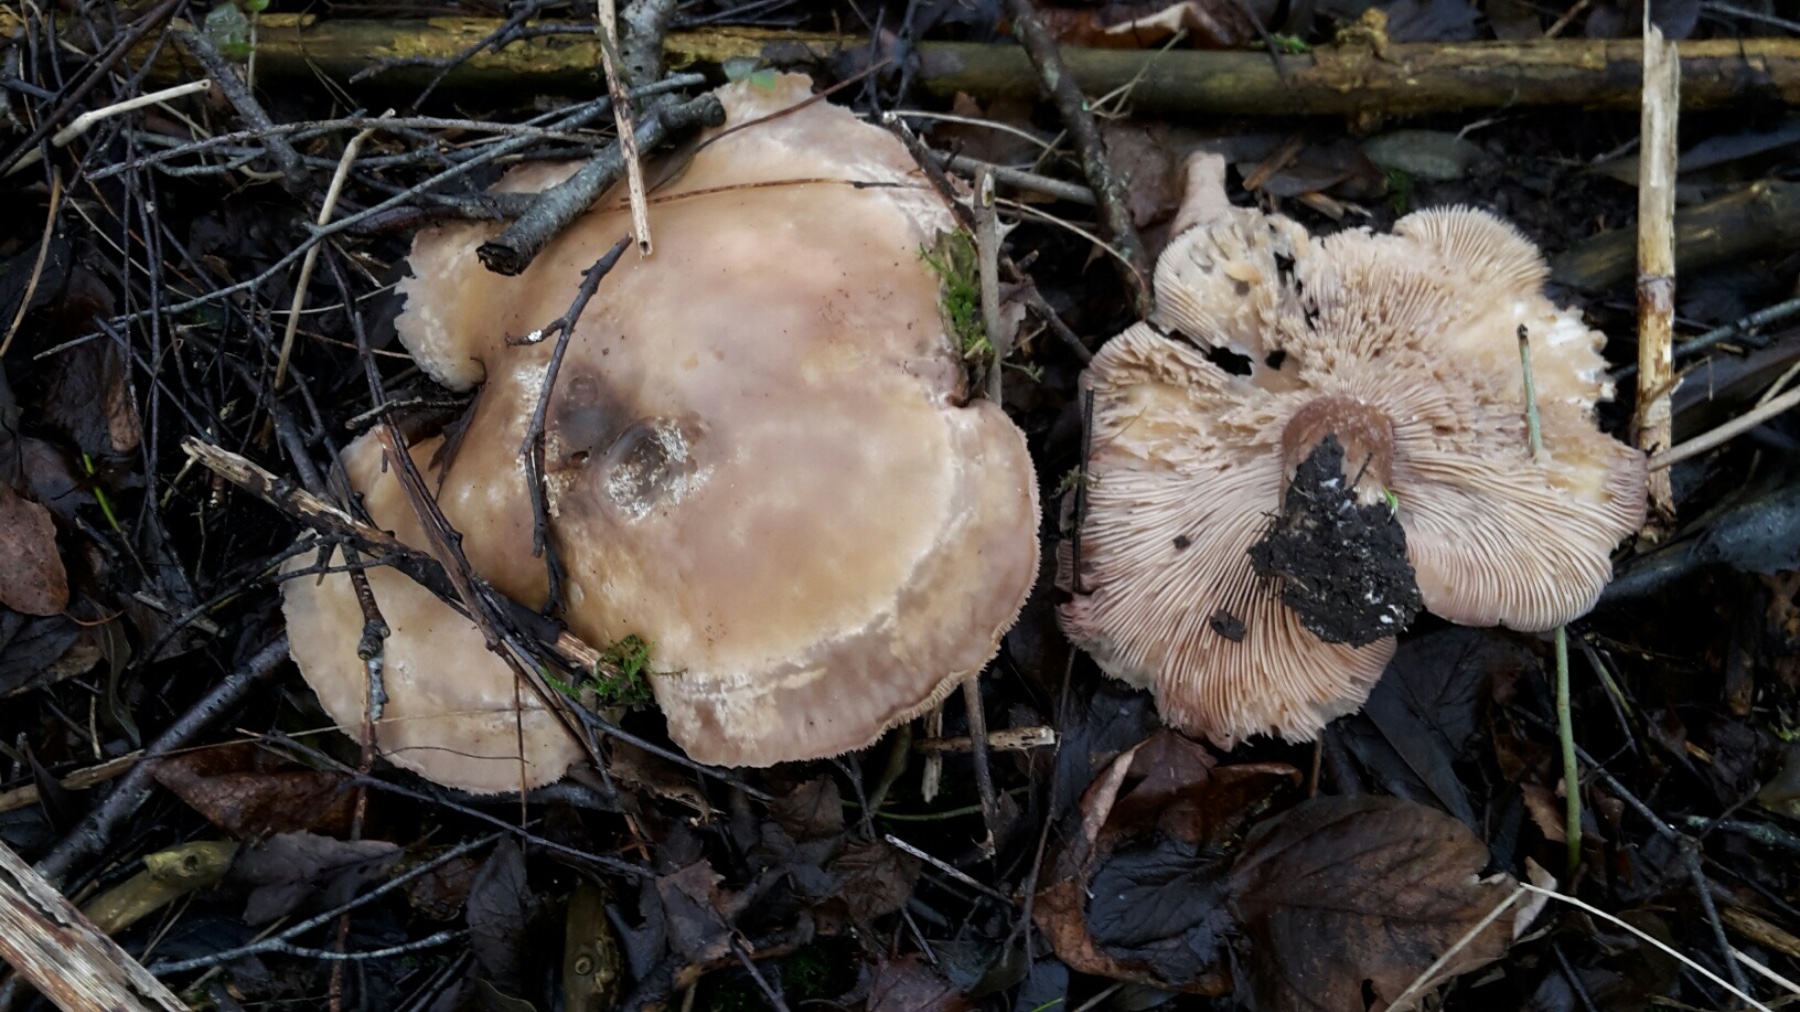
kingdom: Fungi
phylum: Basidiomycota
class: Agaricomycetes
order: Agaricales
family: Tricholomataceae
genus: Lepista
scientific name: Lepista personata
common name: bleg hekseringshat
